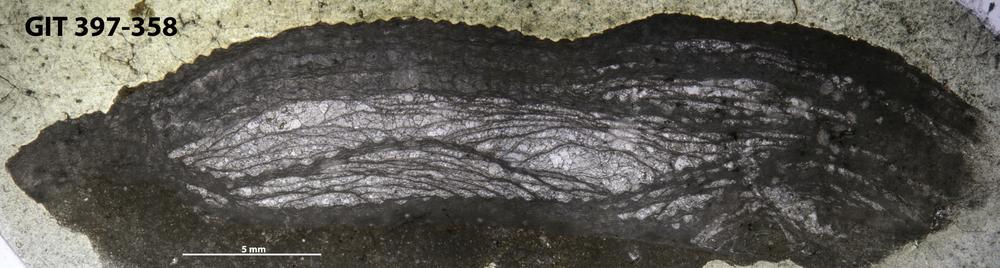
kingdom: Animalia
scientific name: Animalia
